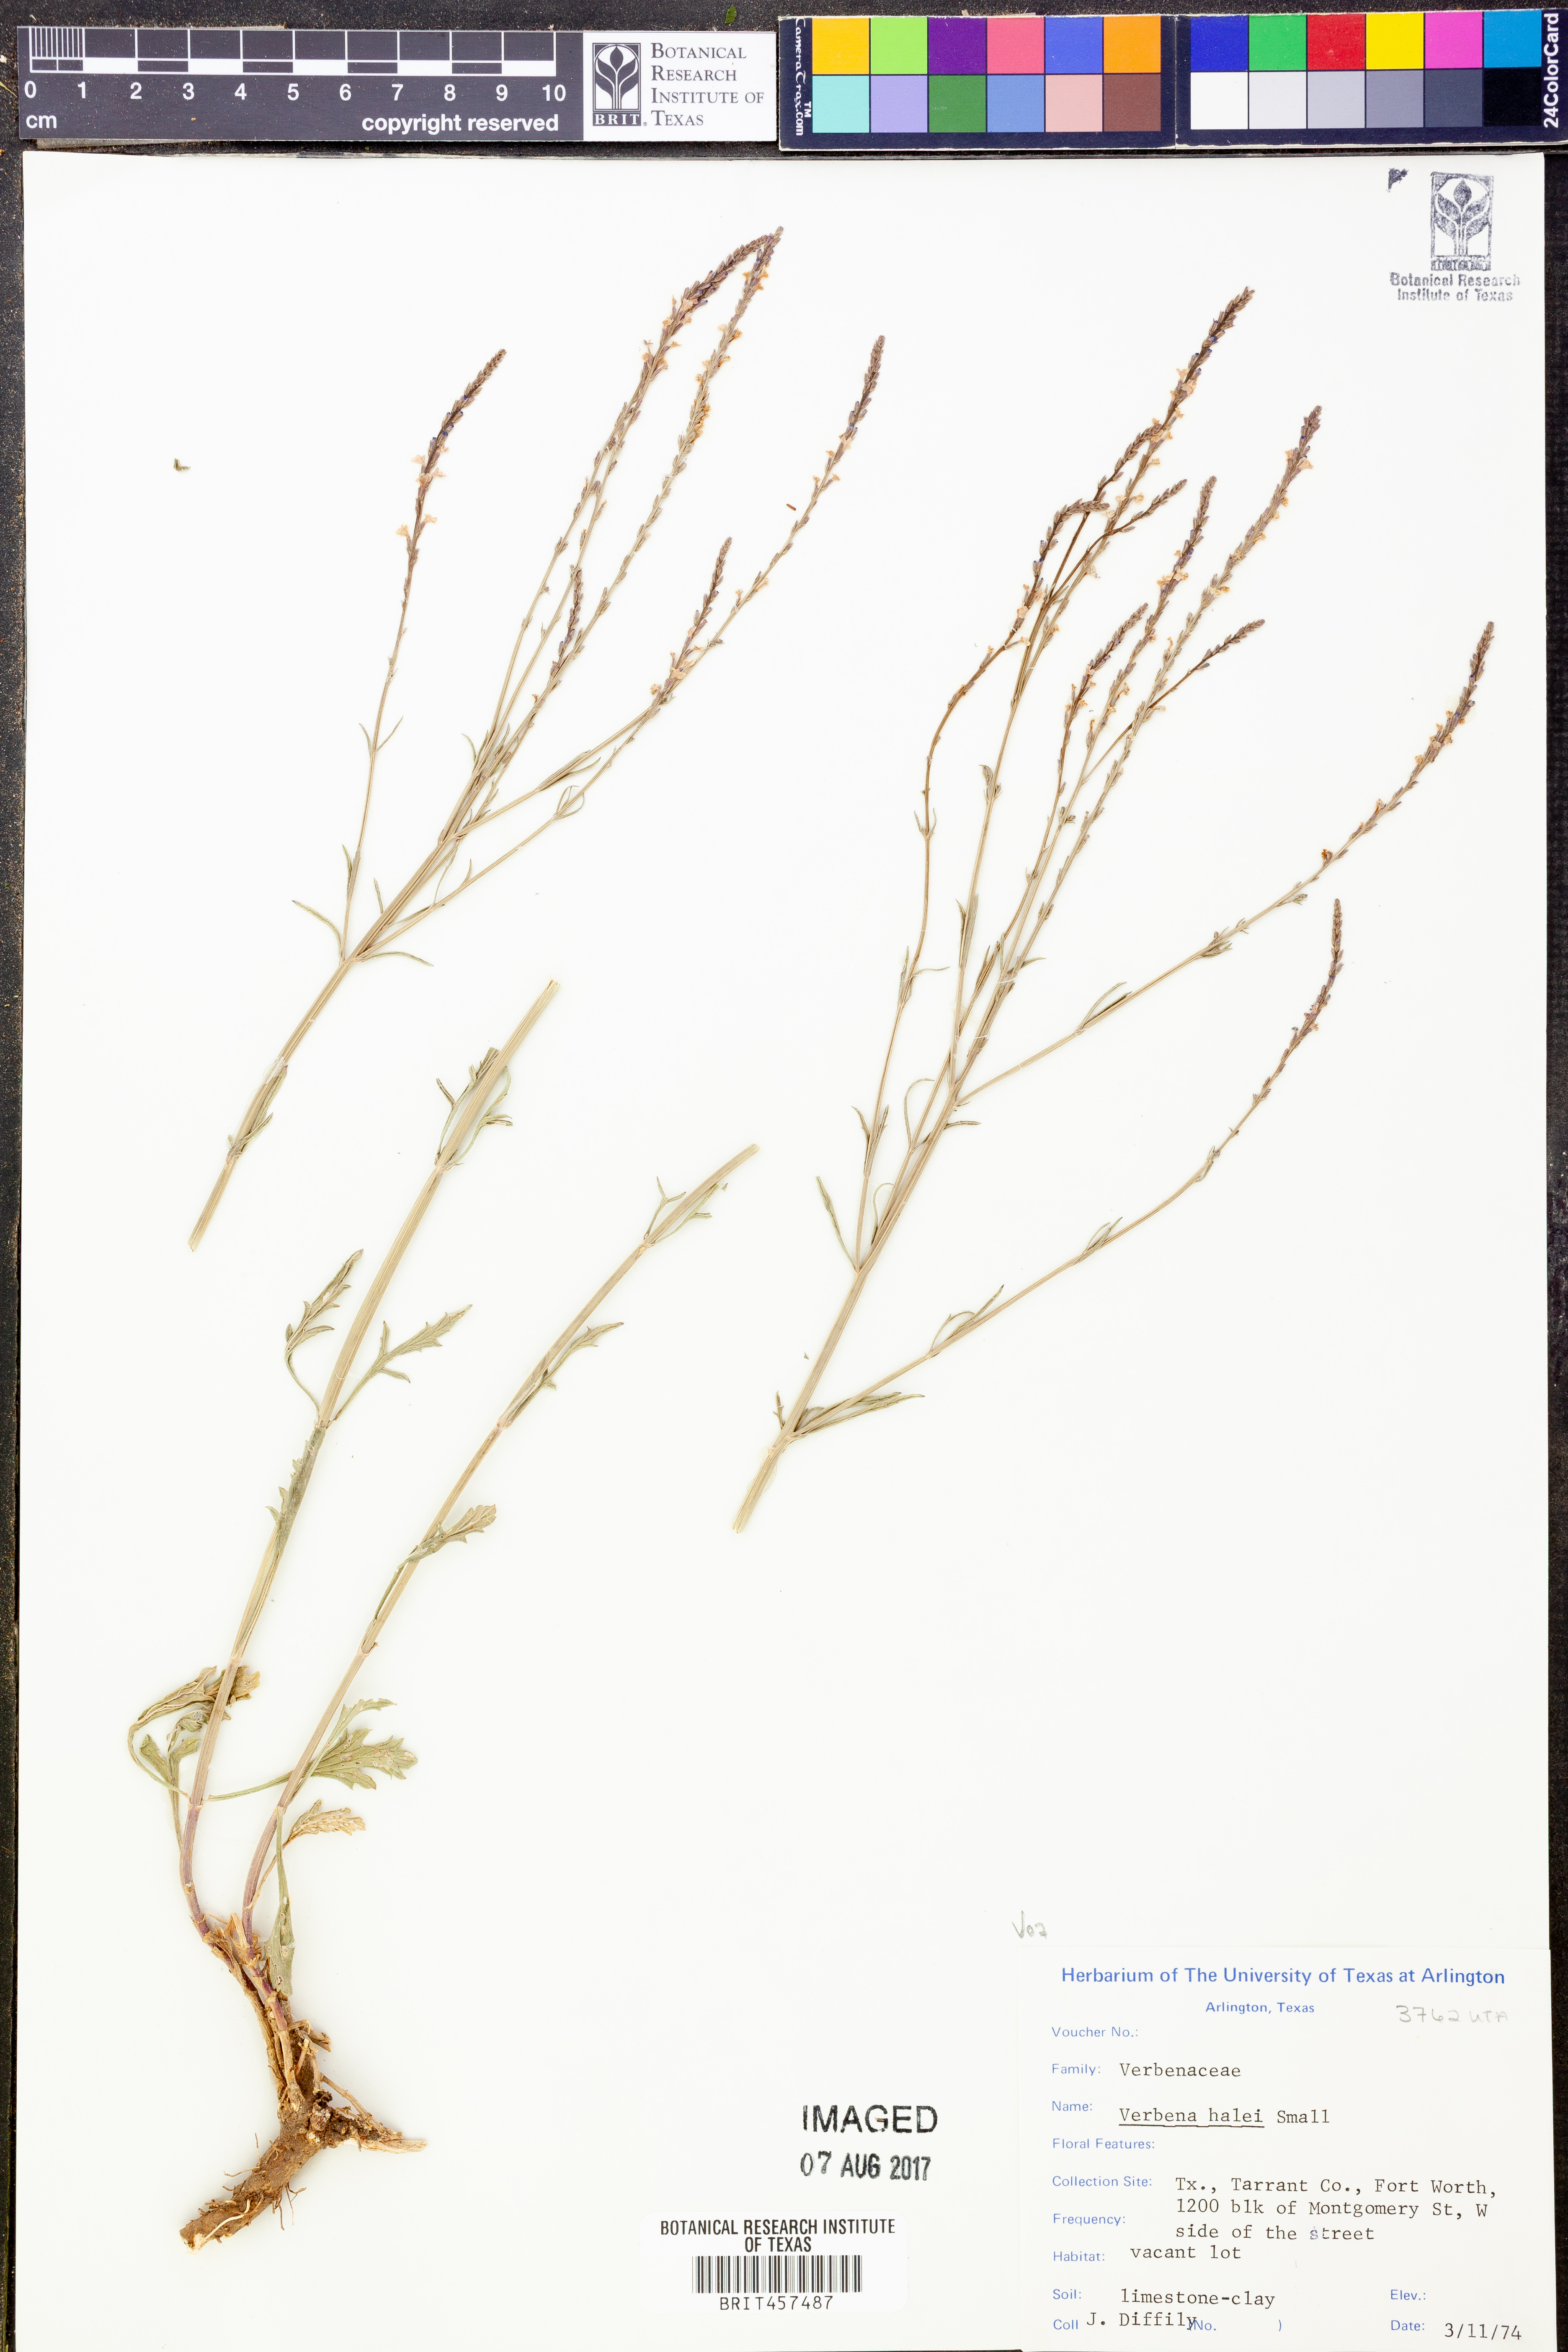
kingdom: Plantae
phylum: Tracheophyta
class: Magnoliopsida
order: Lamiales
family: Verbenaceae
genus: Verbena
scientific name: Verbena halei
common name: Texas vervain
